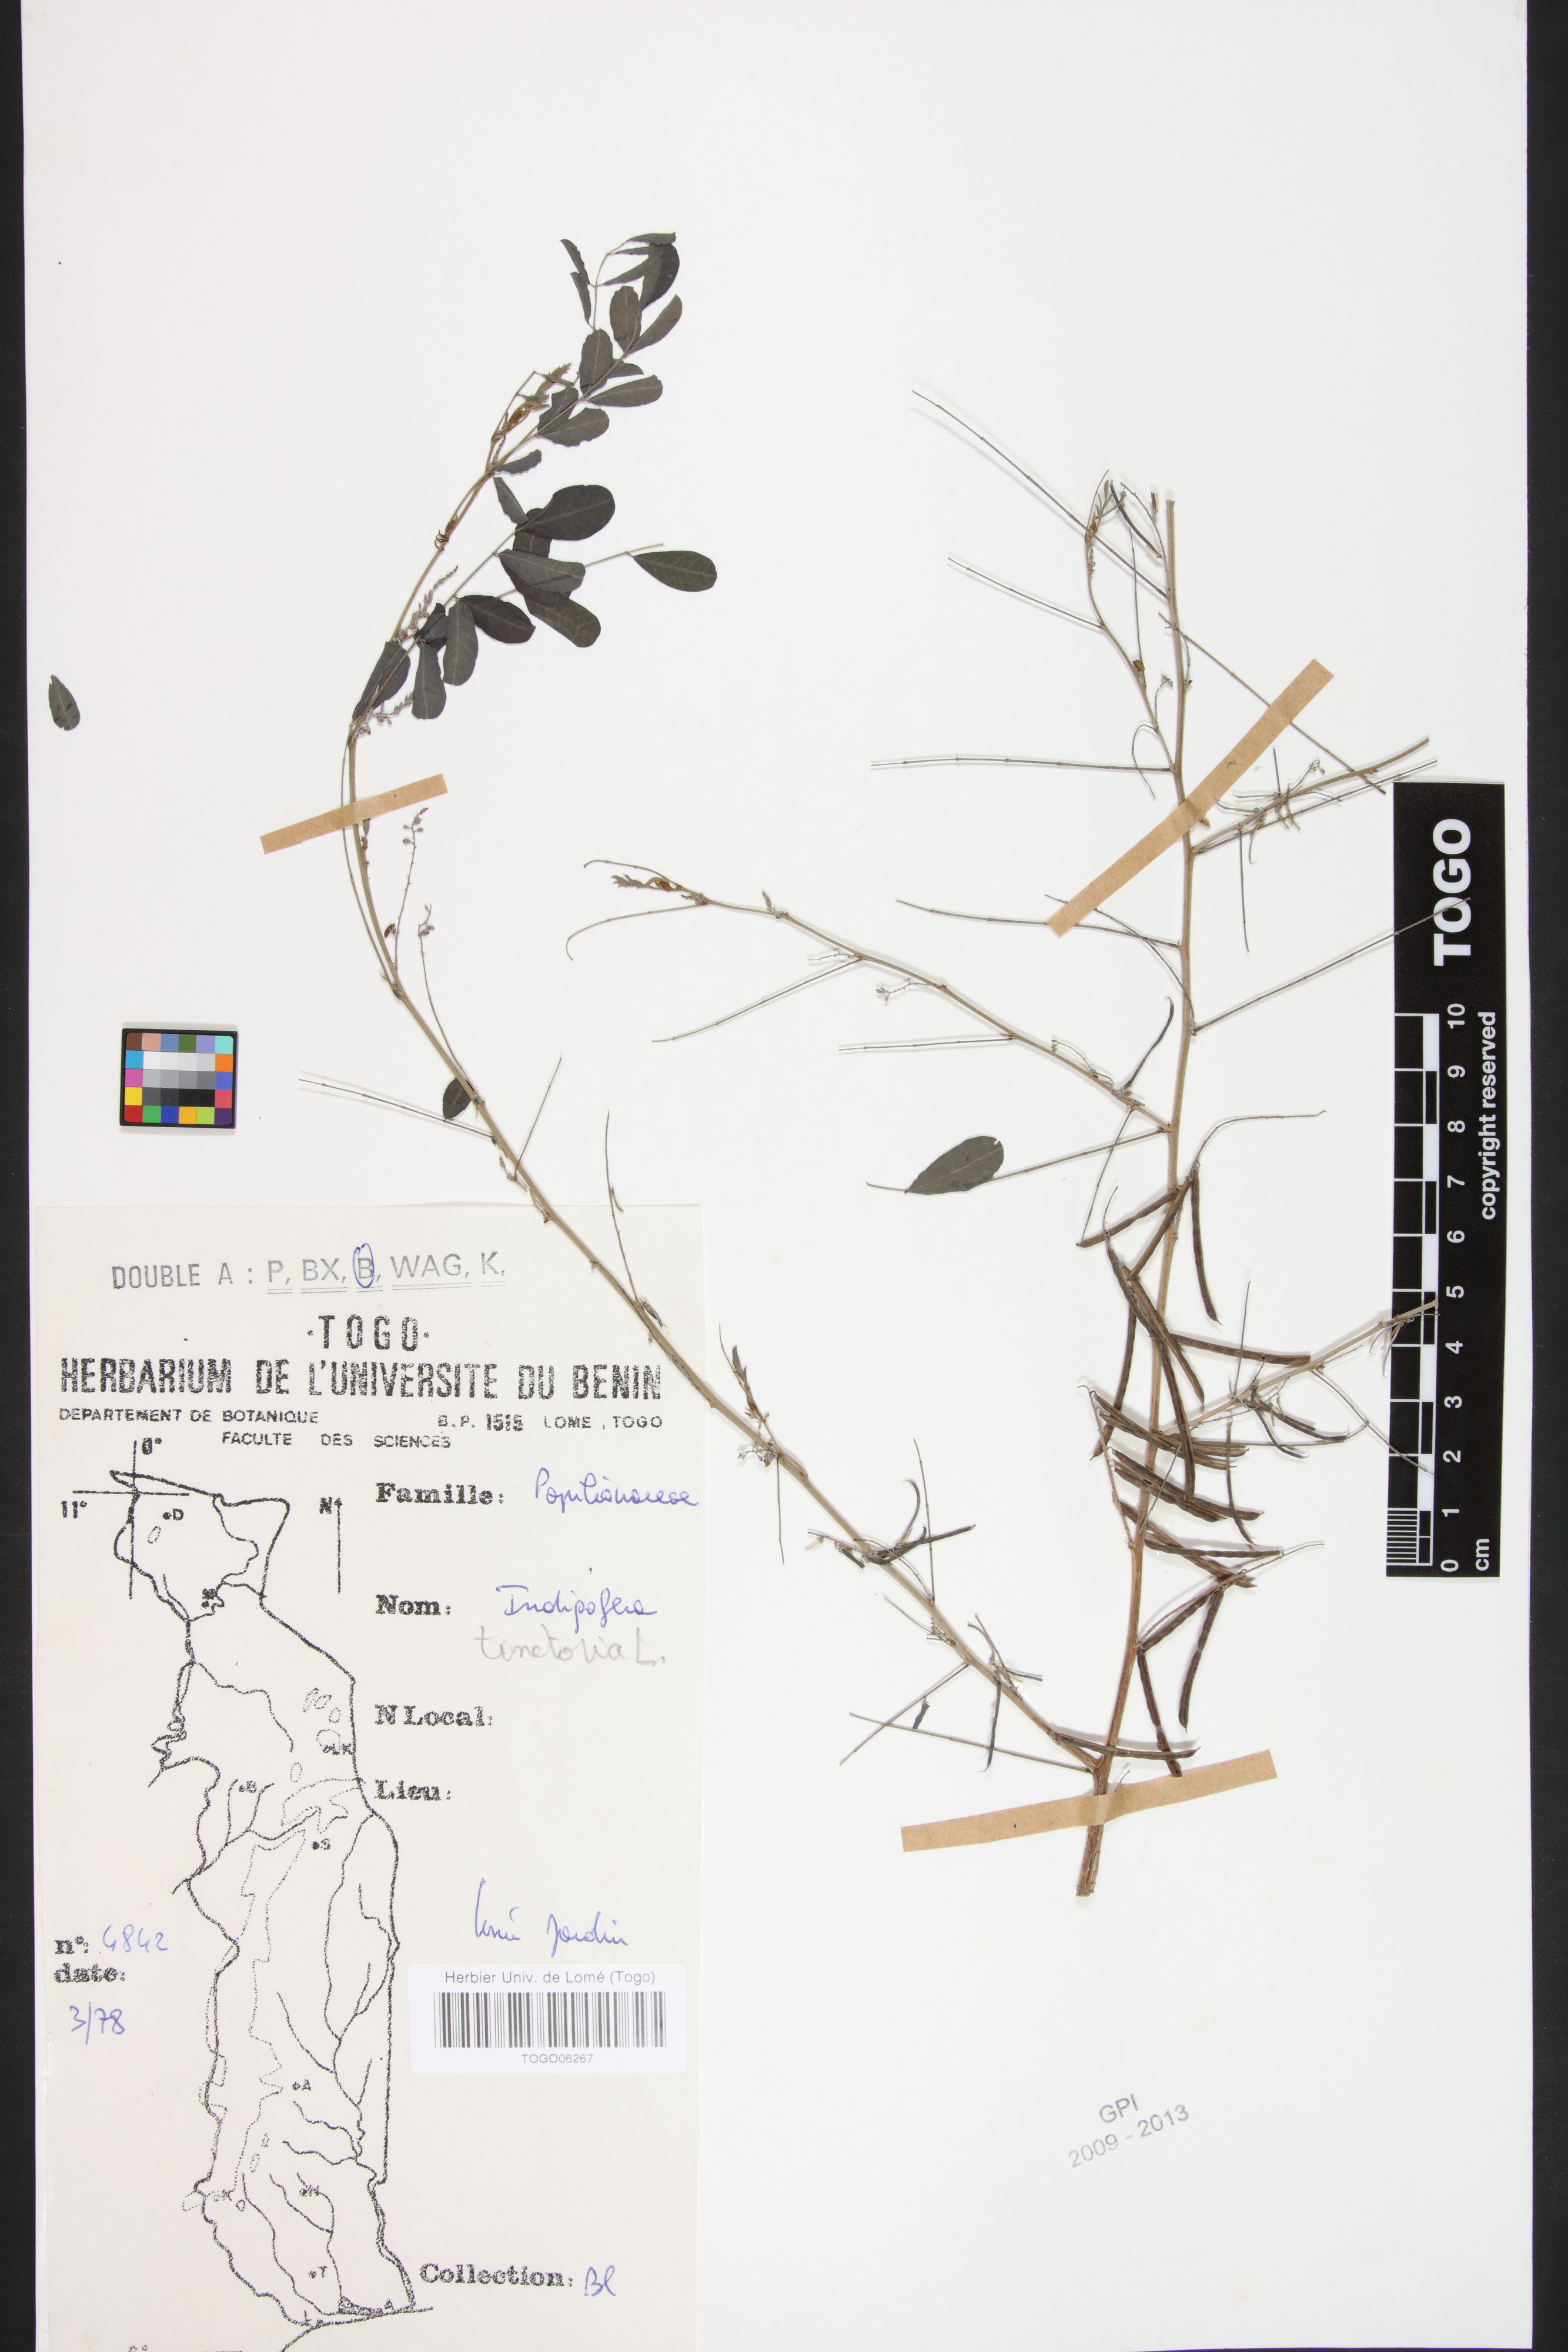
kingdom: Plantae
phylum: Tracheophyta
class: Magnoliopsida
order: Fabales
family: Fabaceae
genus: Indigofera
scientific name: Indigofera tinctoria
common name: True indigo
